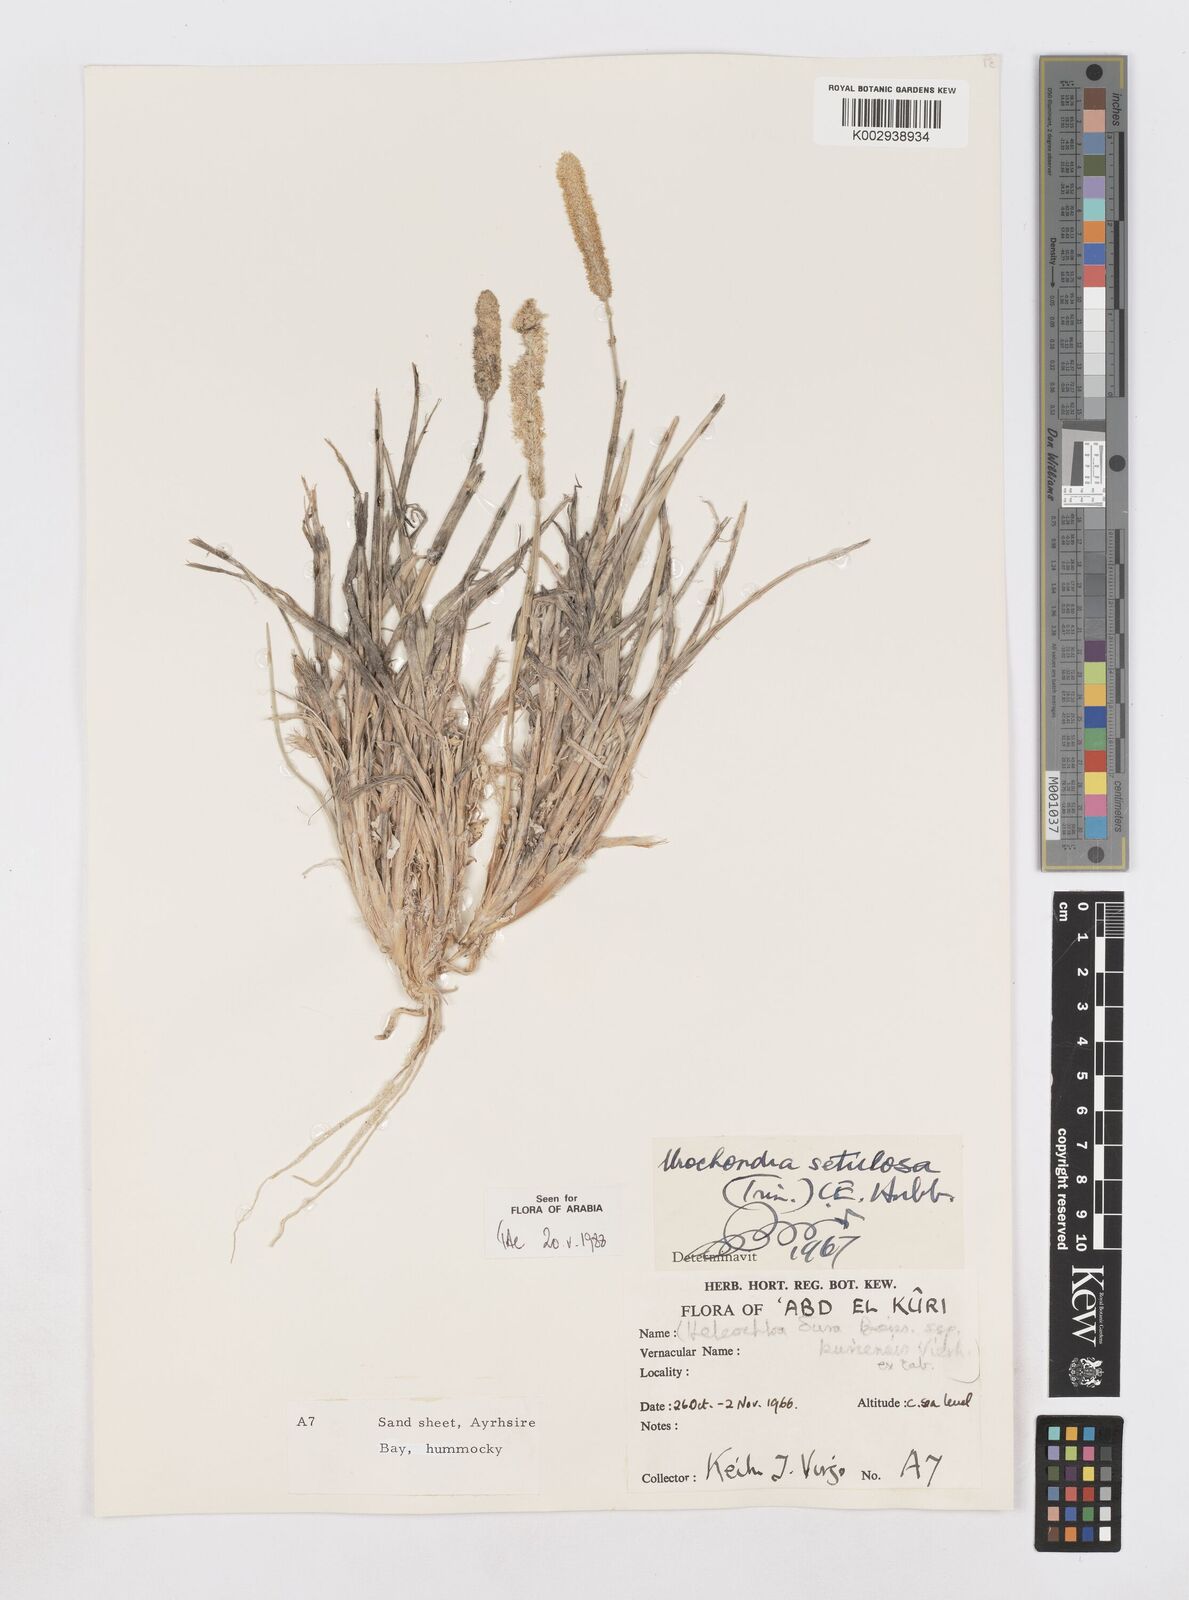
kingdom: Plantae
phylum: Tracheophyta
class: Liliopsida
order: Poales
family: Poaceae
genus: Urochondra
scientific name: Urochondra setulosa
